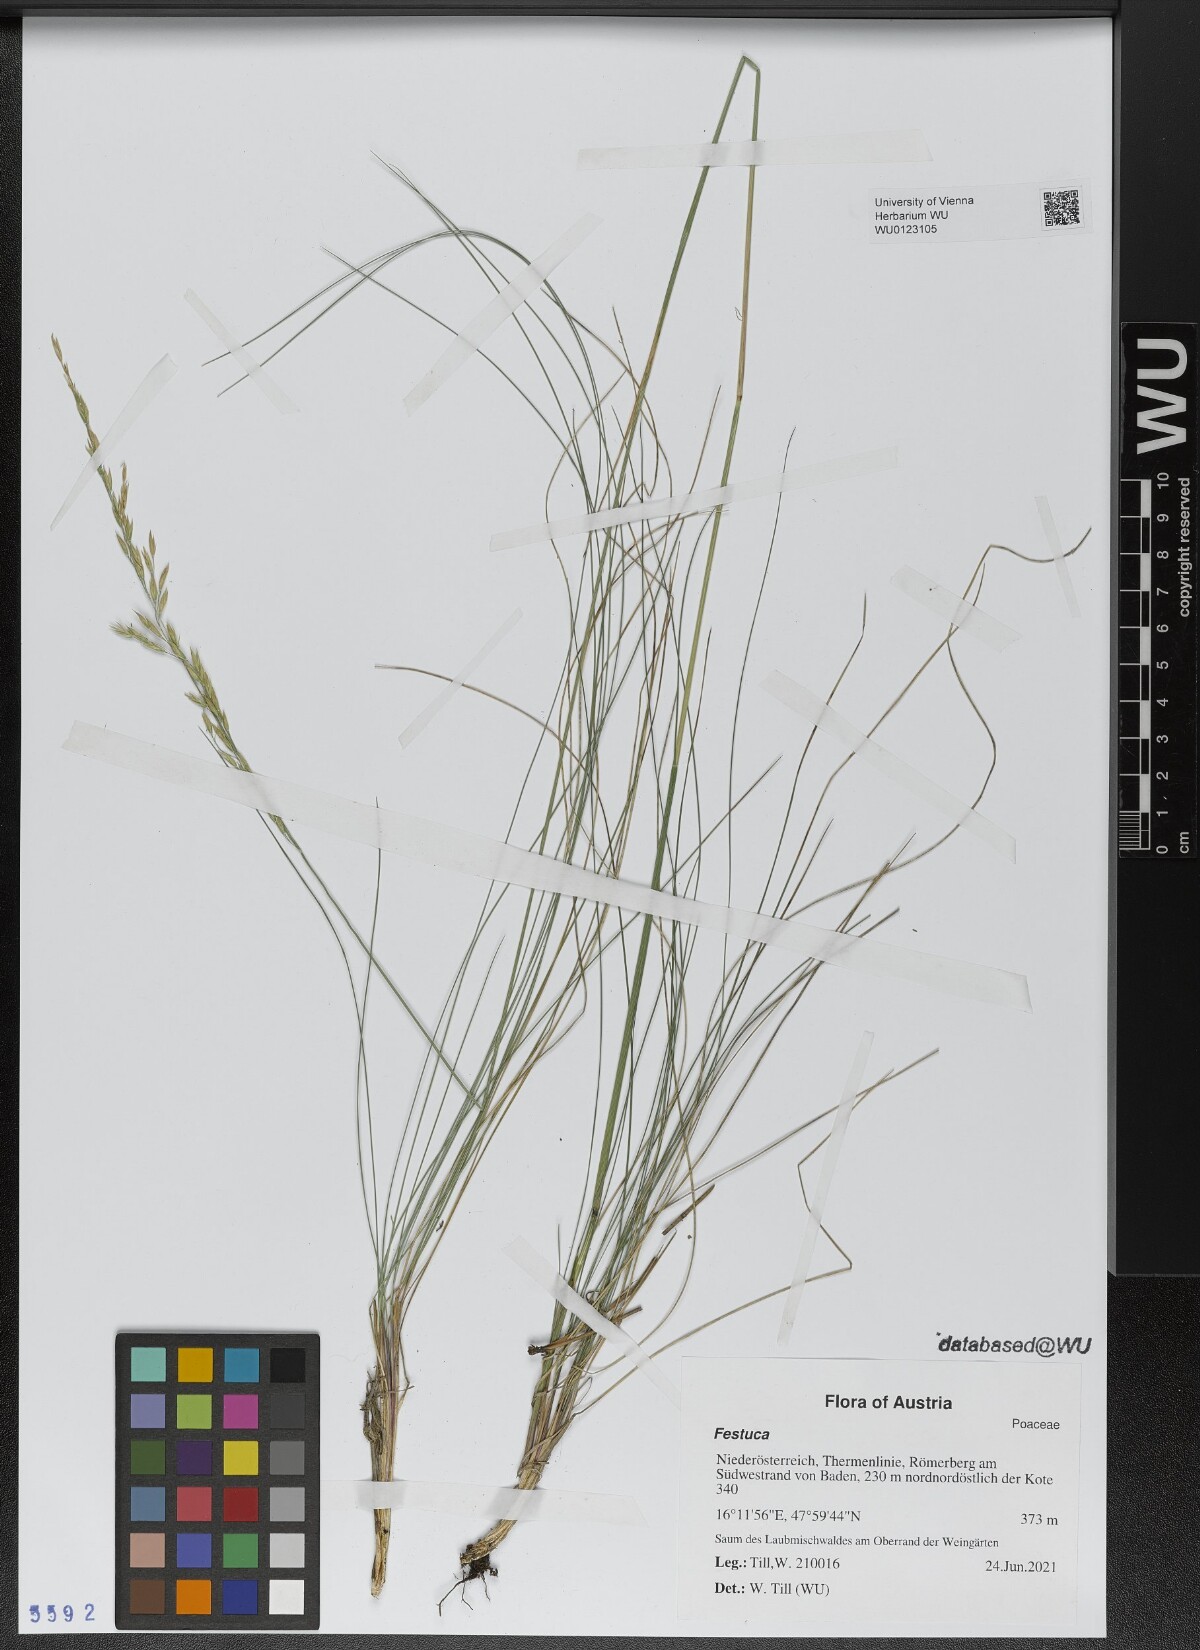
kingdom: Plantae
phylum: Tracheophyta
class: Liliopsida
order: Poales
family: Poaceae
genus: Festuca
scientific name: Festuca
